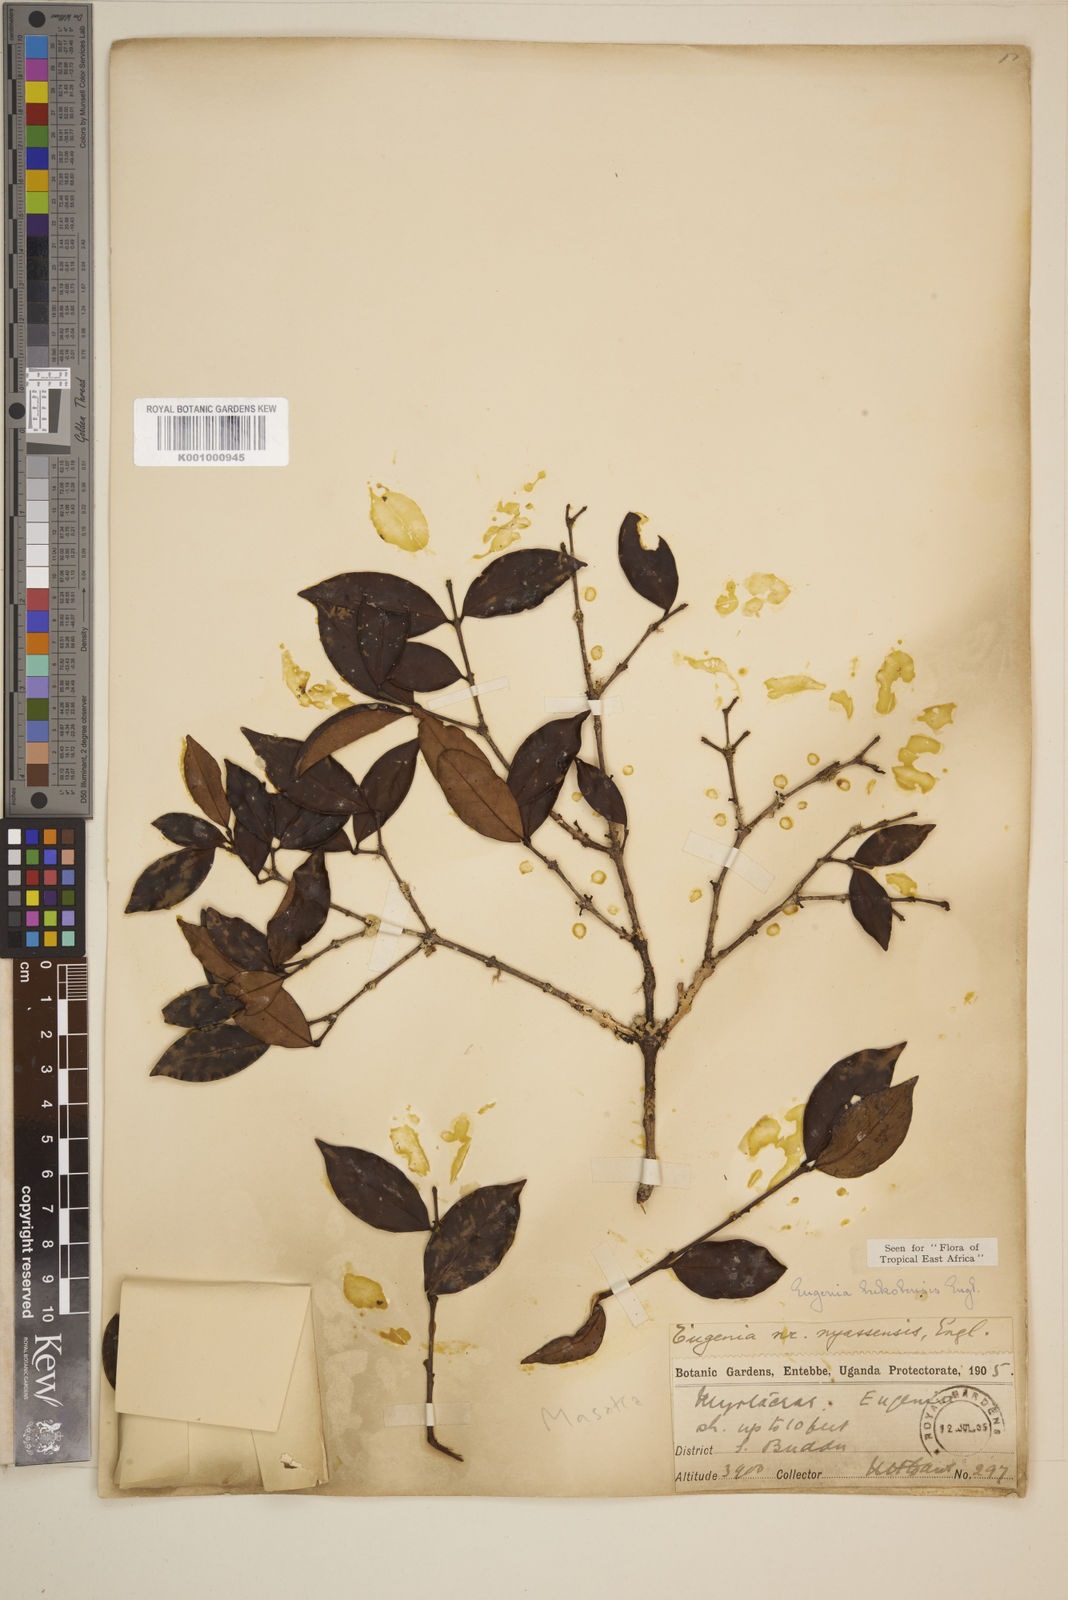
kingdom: Plantae
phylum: Tracheophyta
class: Magnoliopsida
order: Myrtales
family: Myrtaceae
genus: Eugenia
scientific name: Eugenia bukobensis
